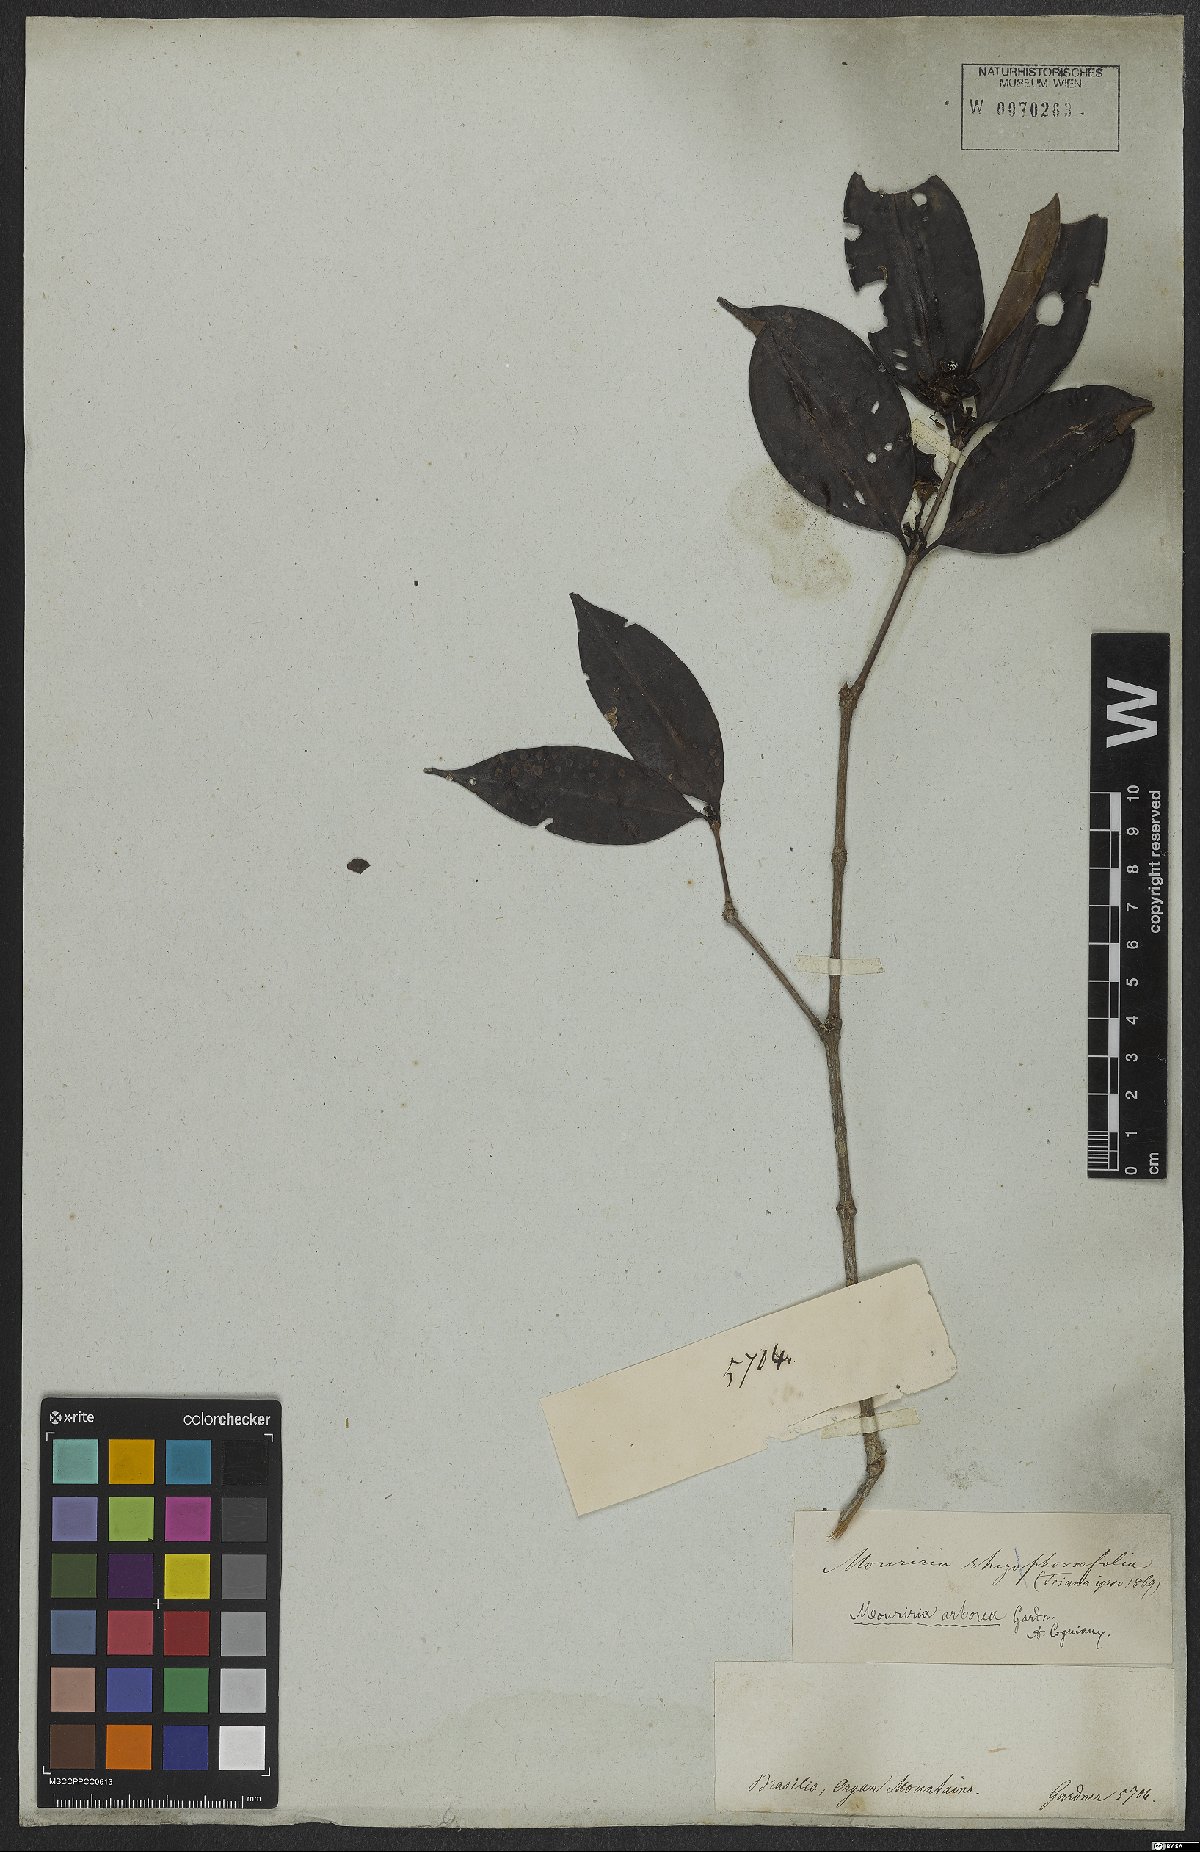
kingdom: Plantae
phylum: Tracheophyta
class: Magnoliopsida
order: Myrtales
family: Melastomataceae
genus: Mouriri
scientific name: Mouriri arborea
